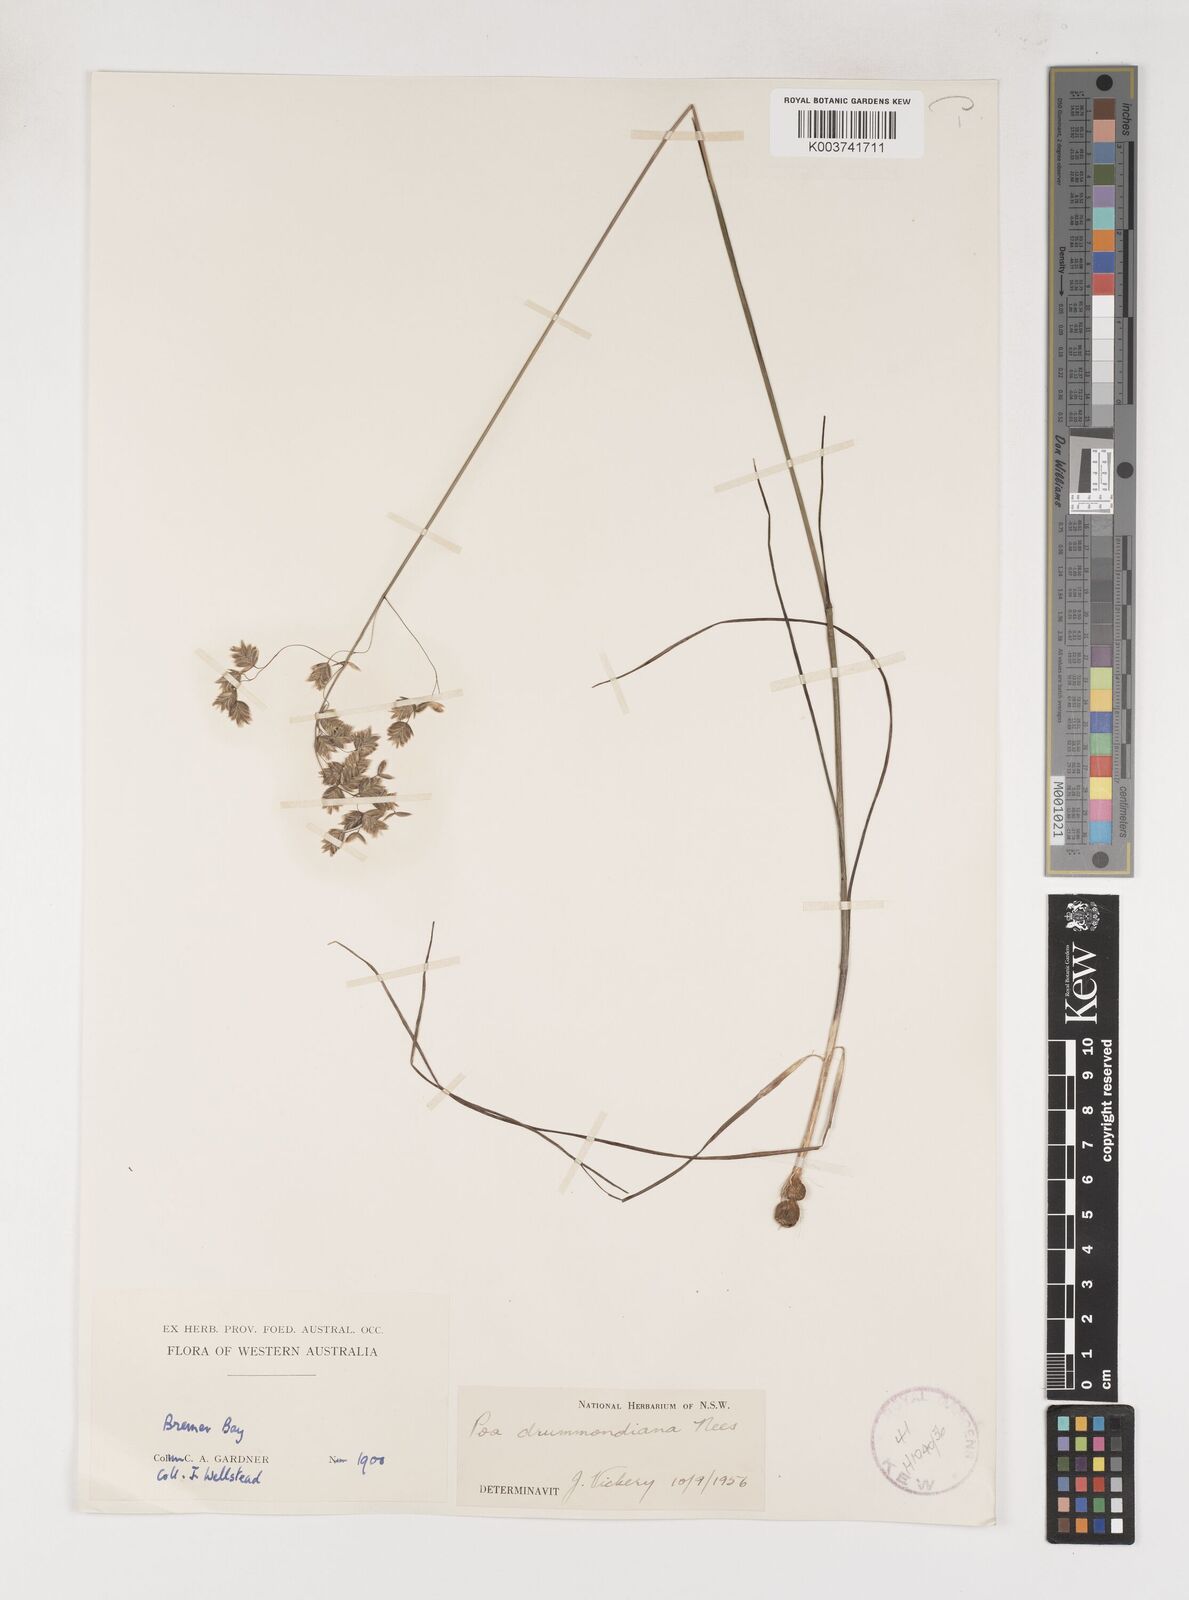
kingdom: Plantae
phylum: Tracheophyta
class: Liliopsida
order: Poales
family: Poaceae
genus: Poa
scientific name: Poa drummondiana
